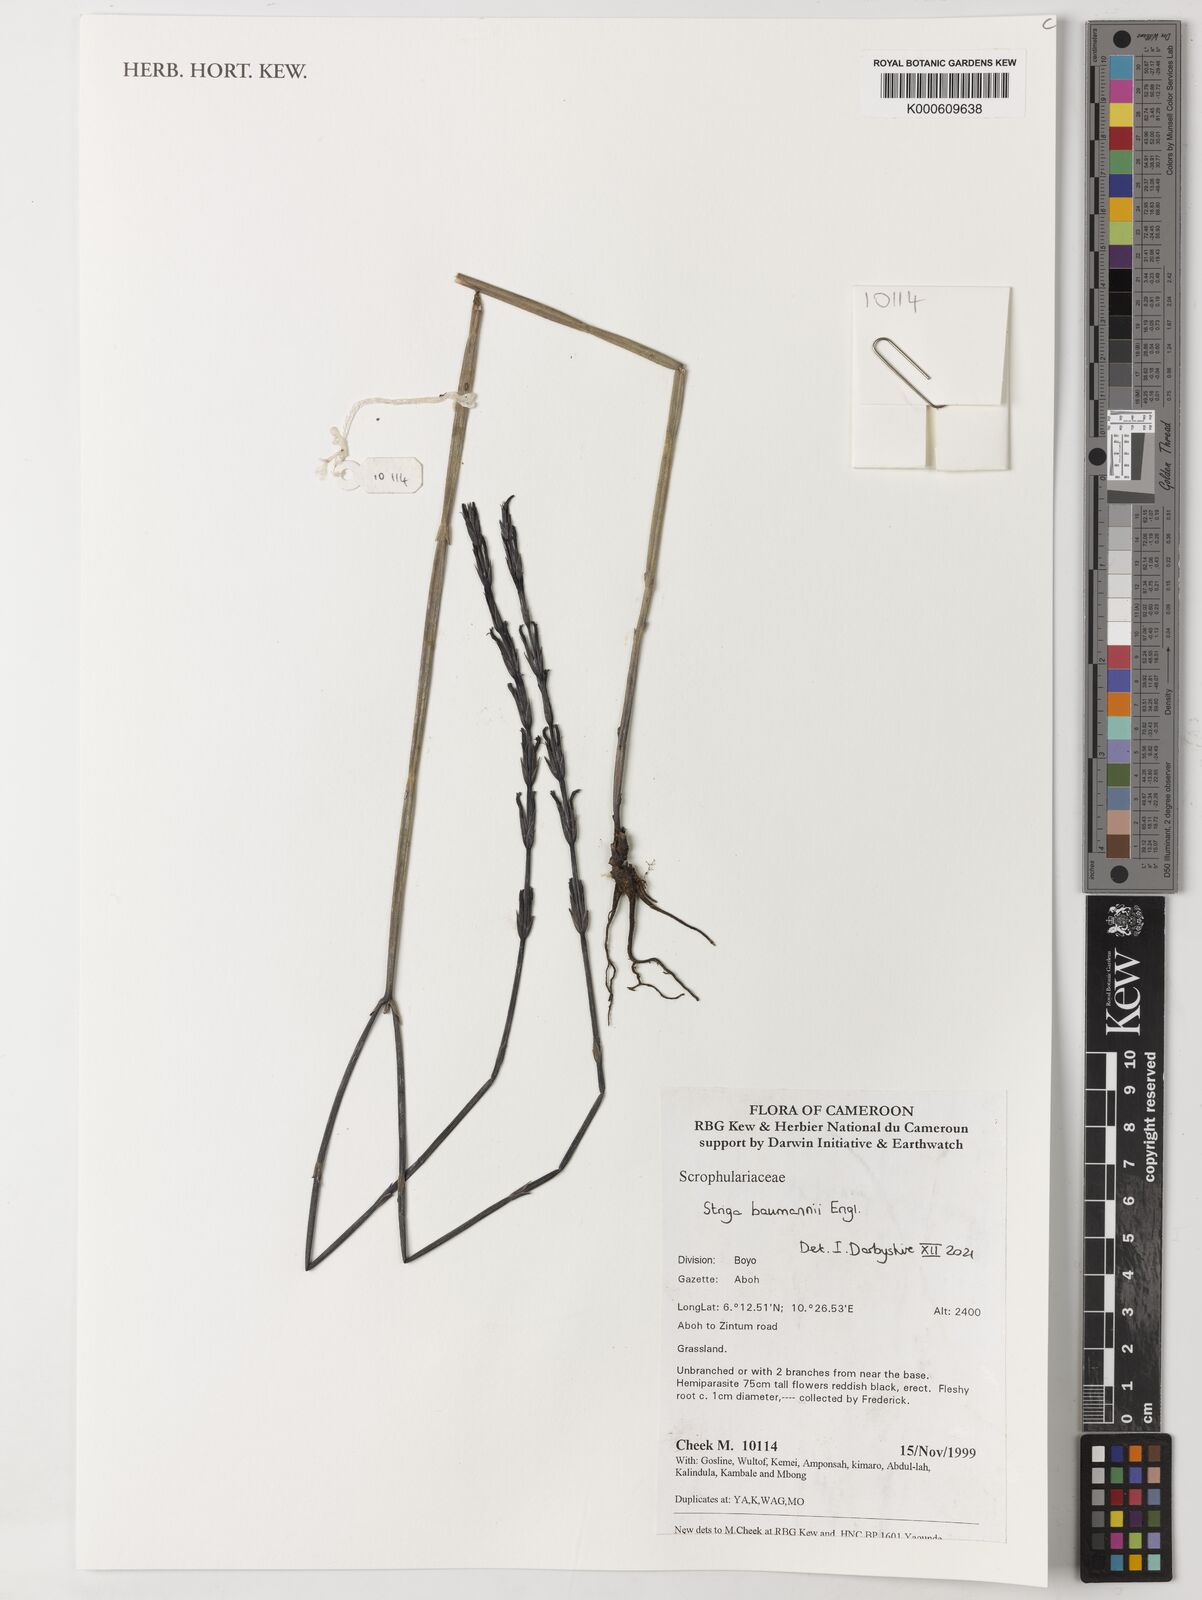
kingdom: Plantae
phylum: Tracheophyta
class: Magnoliopsida
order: Lamiales
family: Orobanchaceae
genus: Striga
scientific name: Striga baumannii
